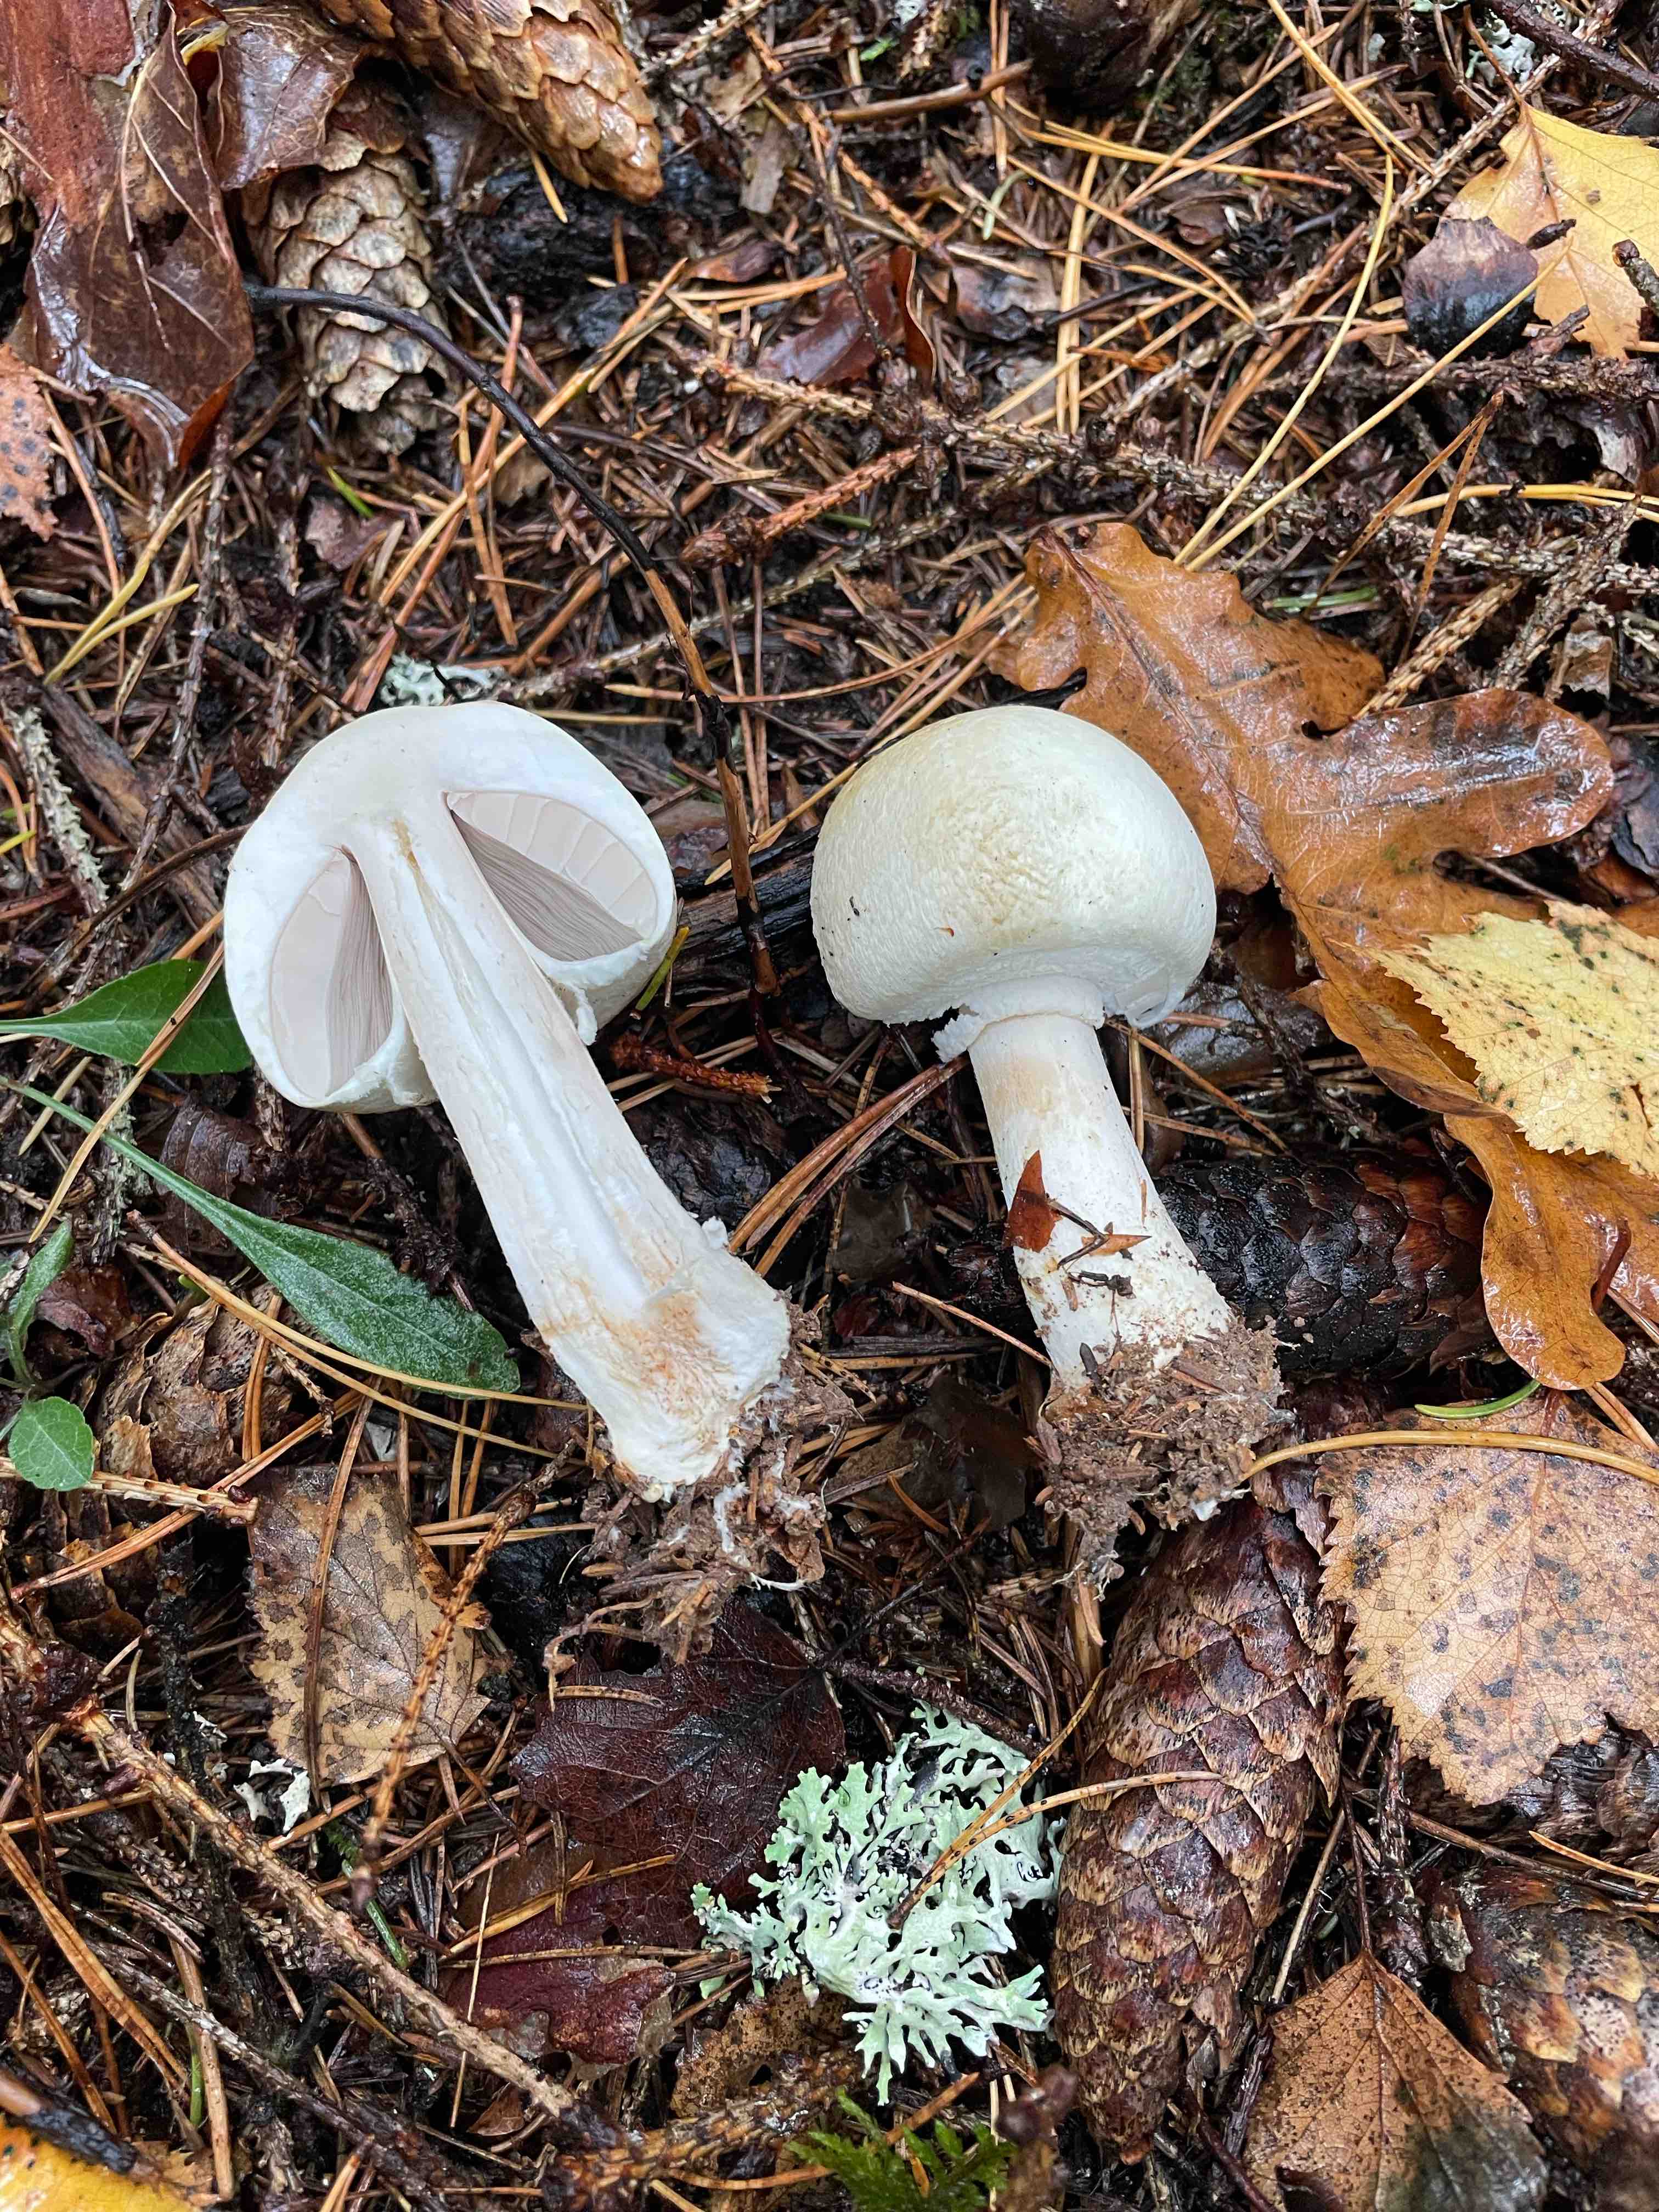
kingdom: Fungi
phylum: Basidiomycota
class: Agaricomycetes
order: Agaricales
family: Agaricaceae
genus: Agaricus
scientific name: Agaricus
